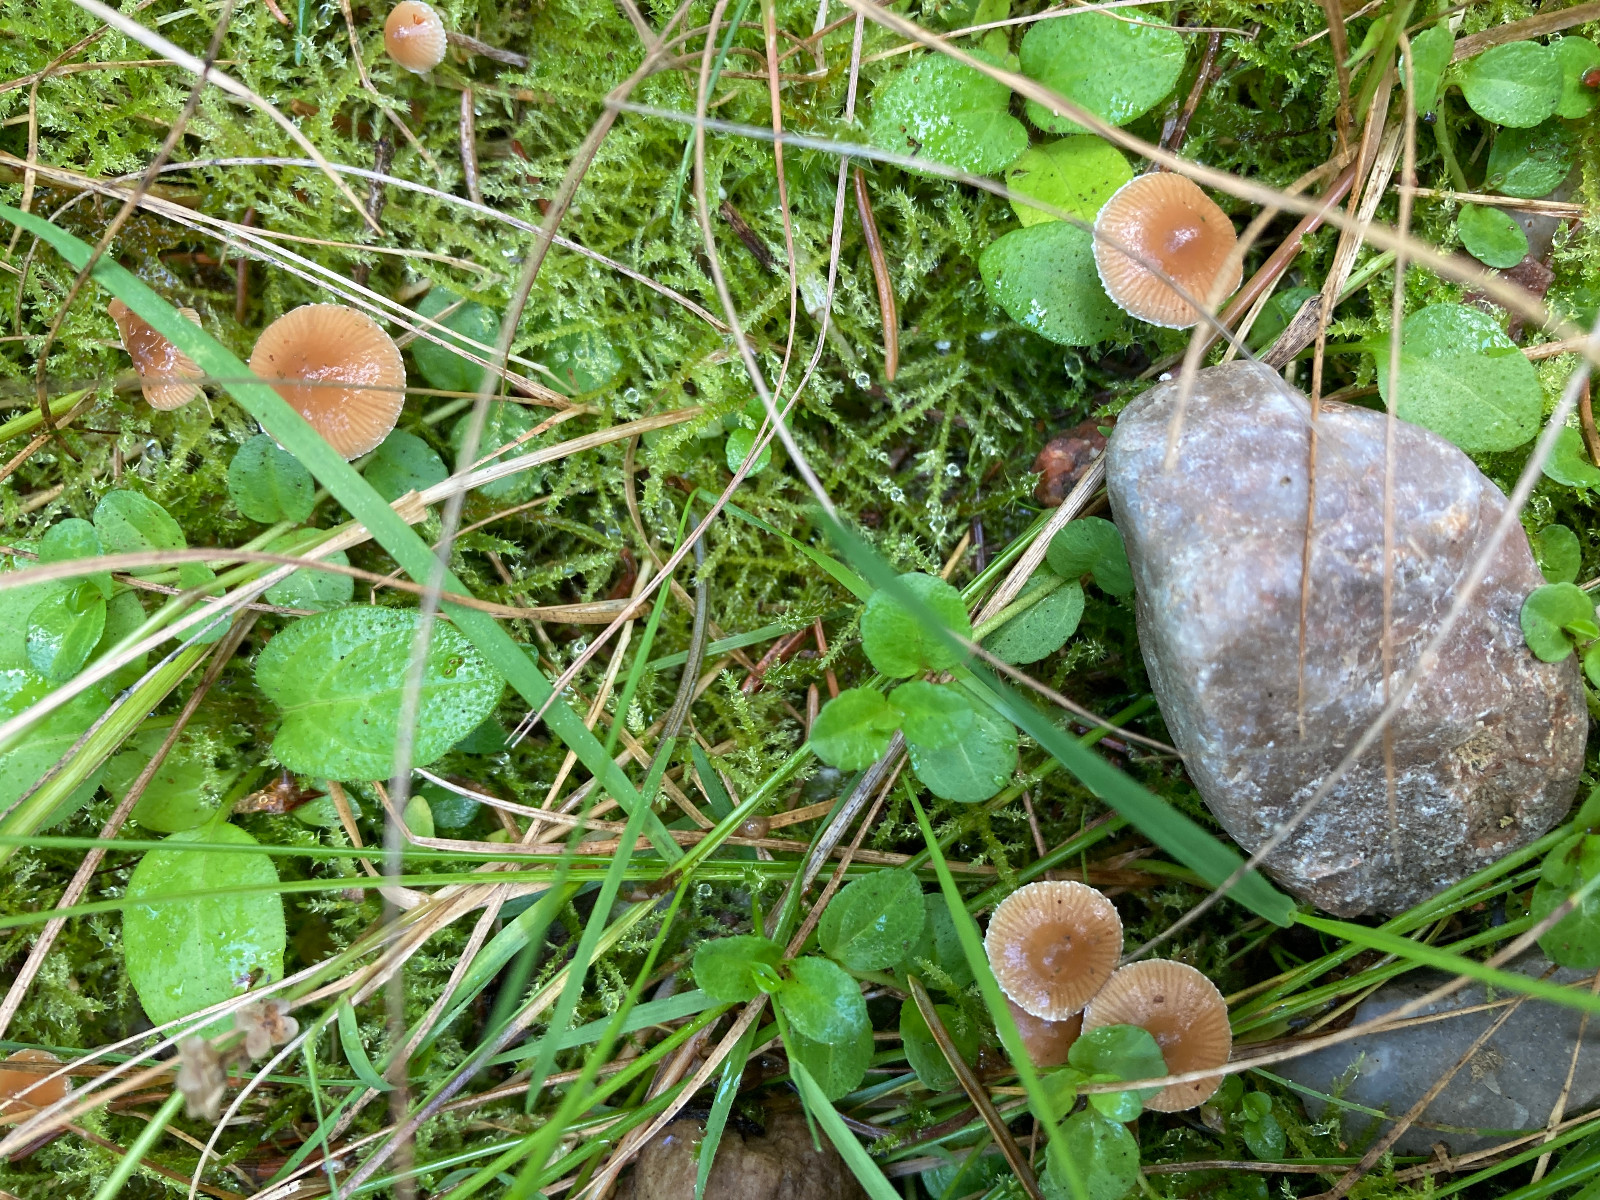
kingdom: Fungi
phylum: Basidiomycota
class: Agaricomycetes
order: Agaricales
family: Strophariaceae
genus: Deconica
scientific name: Deconica crobula
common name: træflis-stråhat
